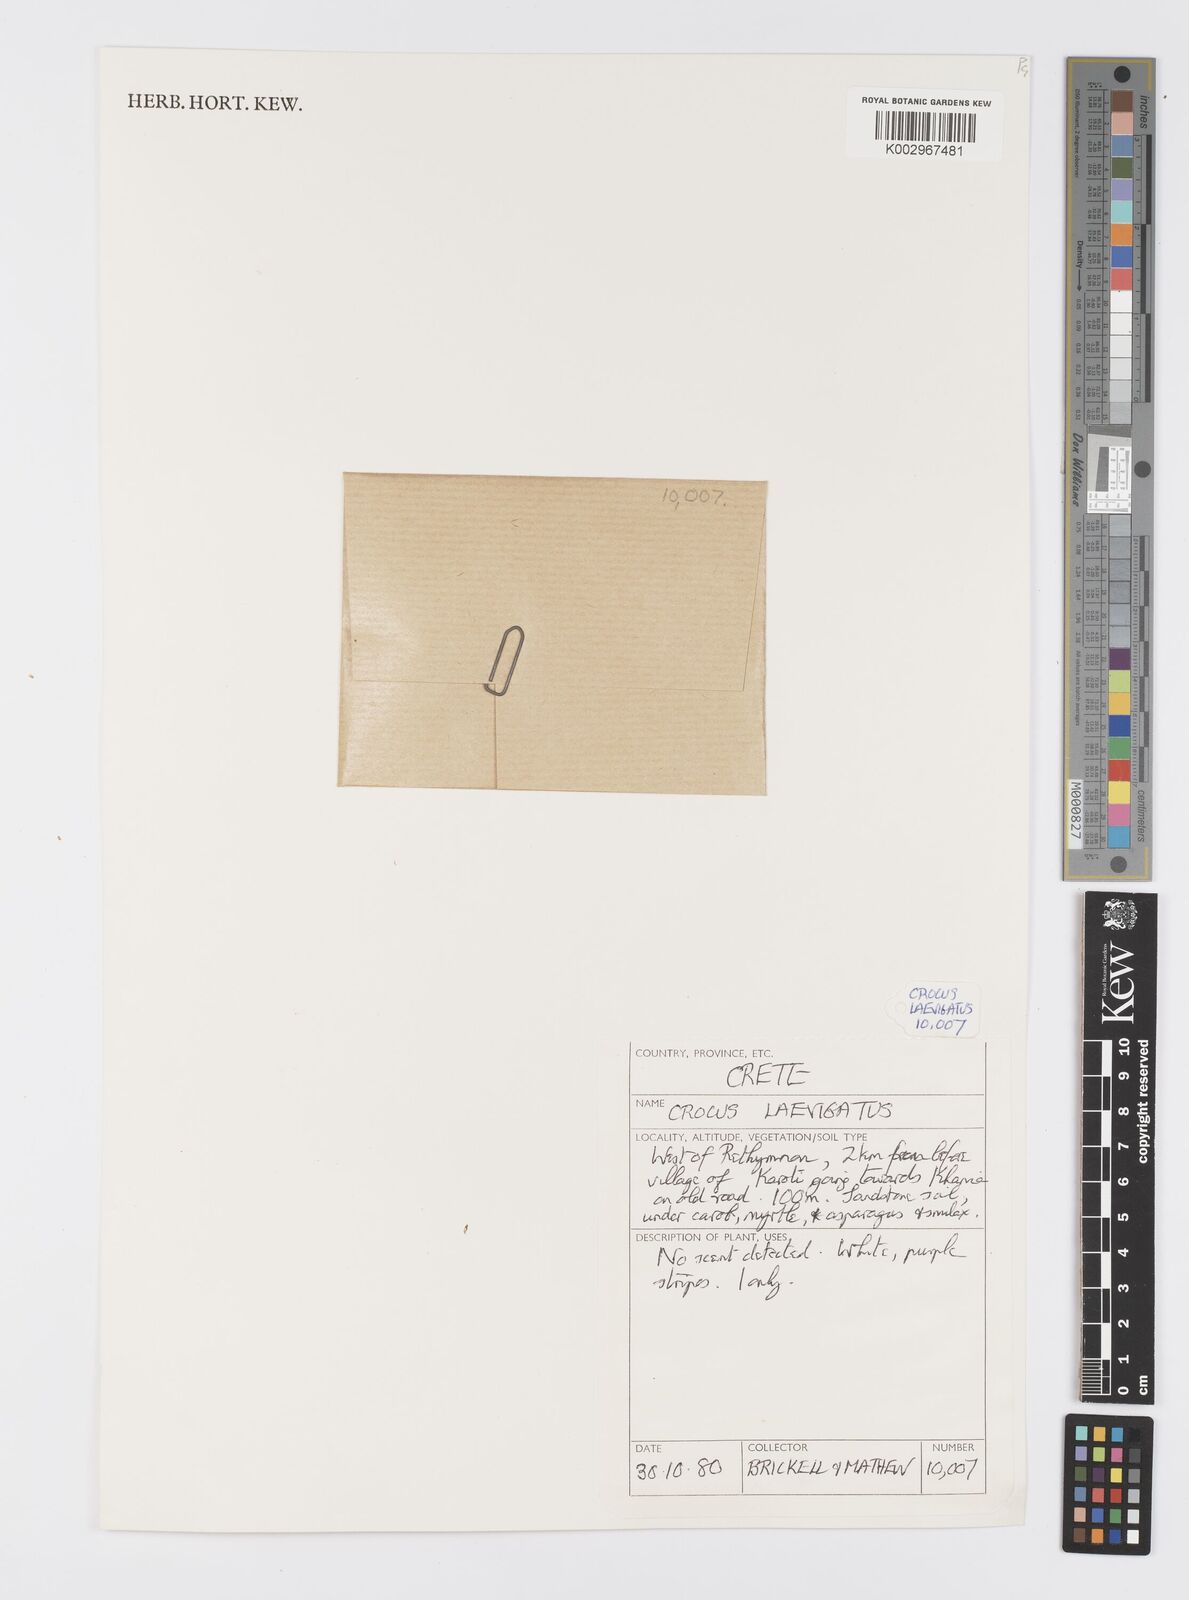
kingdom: Plantae
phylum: Tracheophyta
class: Liliopsida
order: Asparagales
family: Iridaceae
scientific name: Iridaceae
